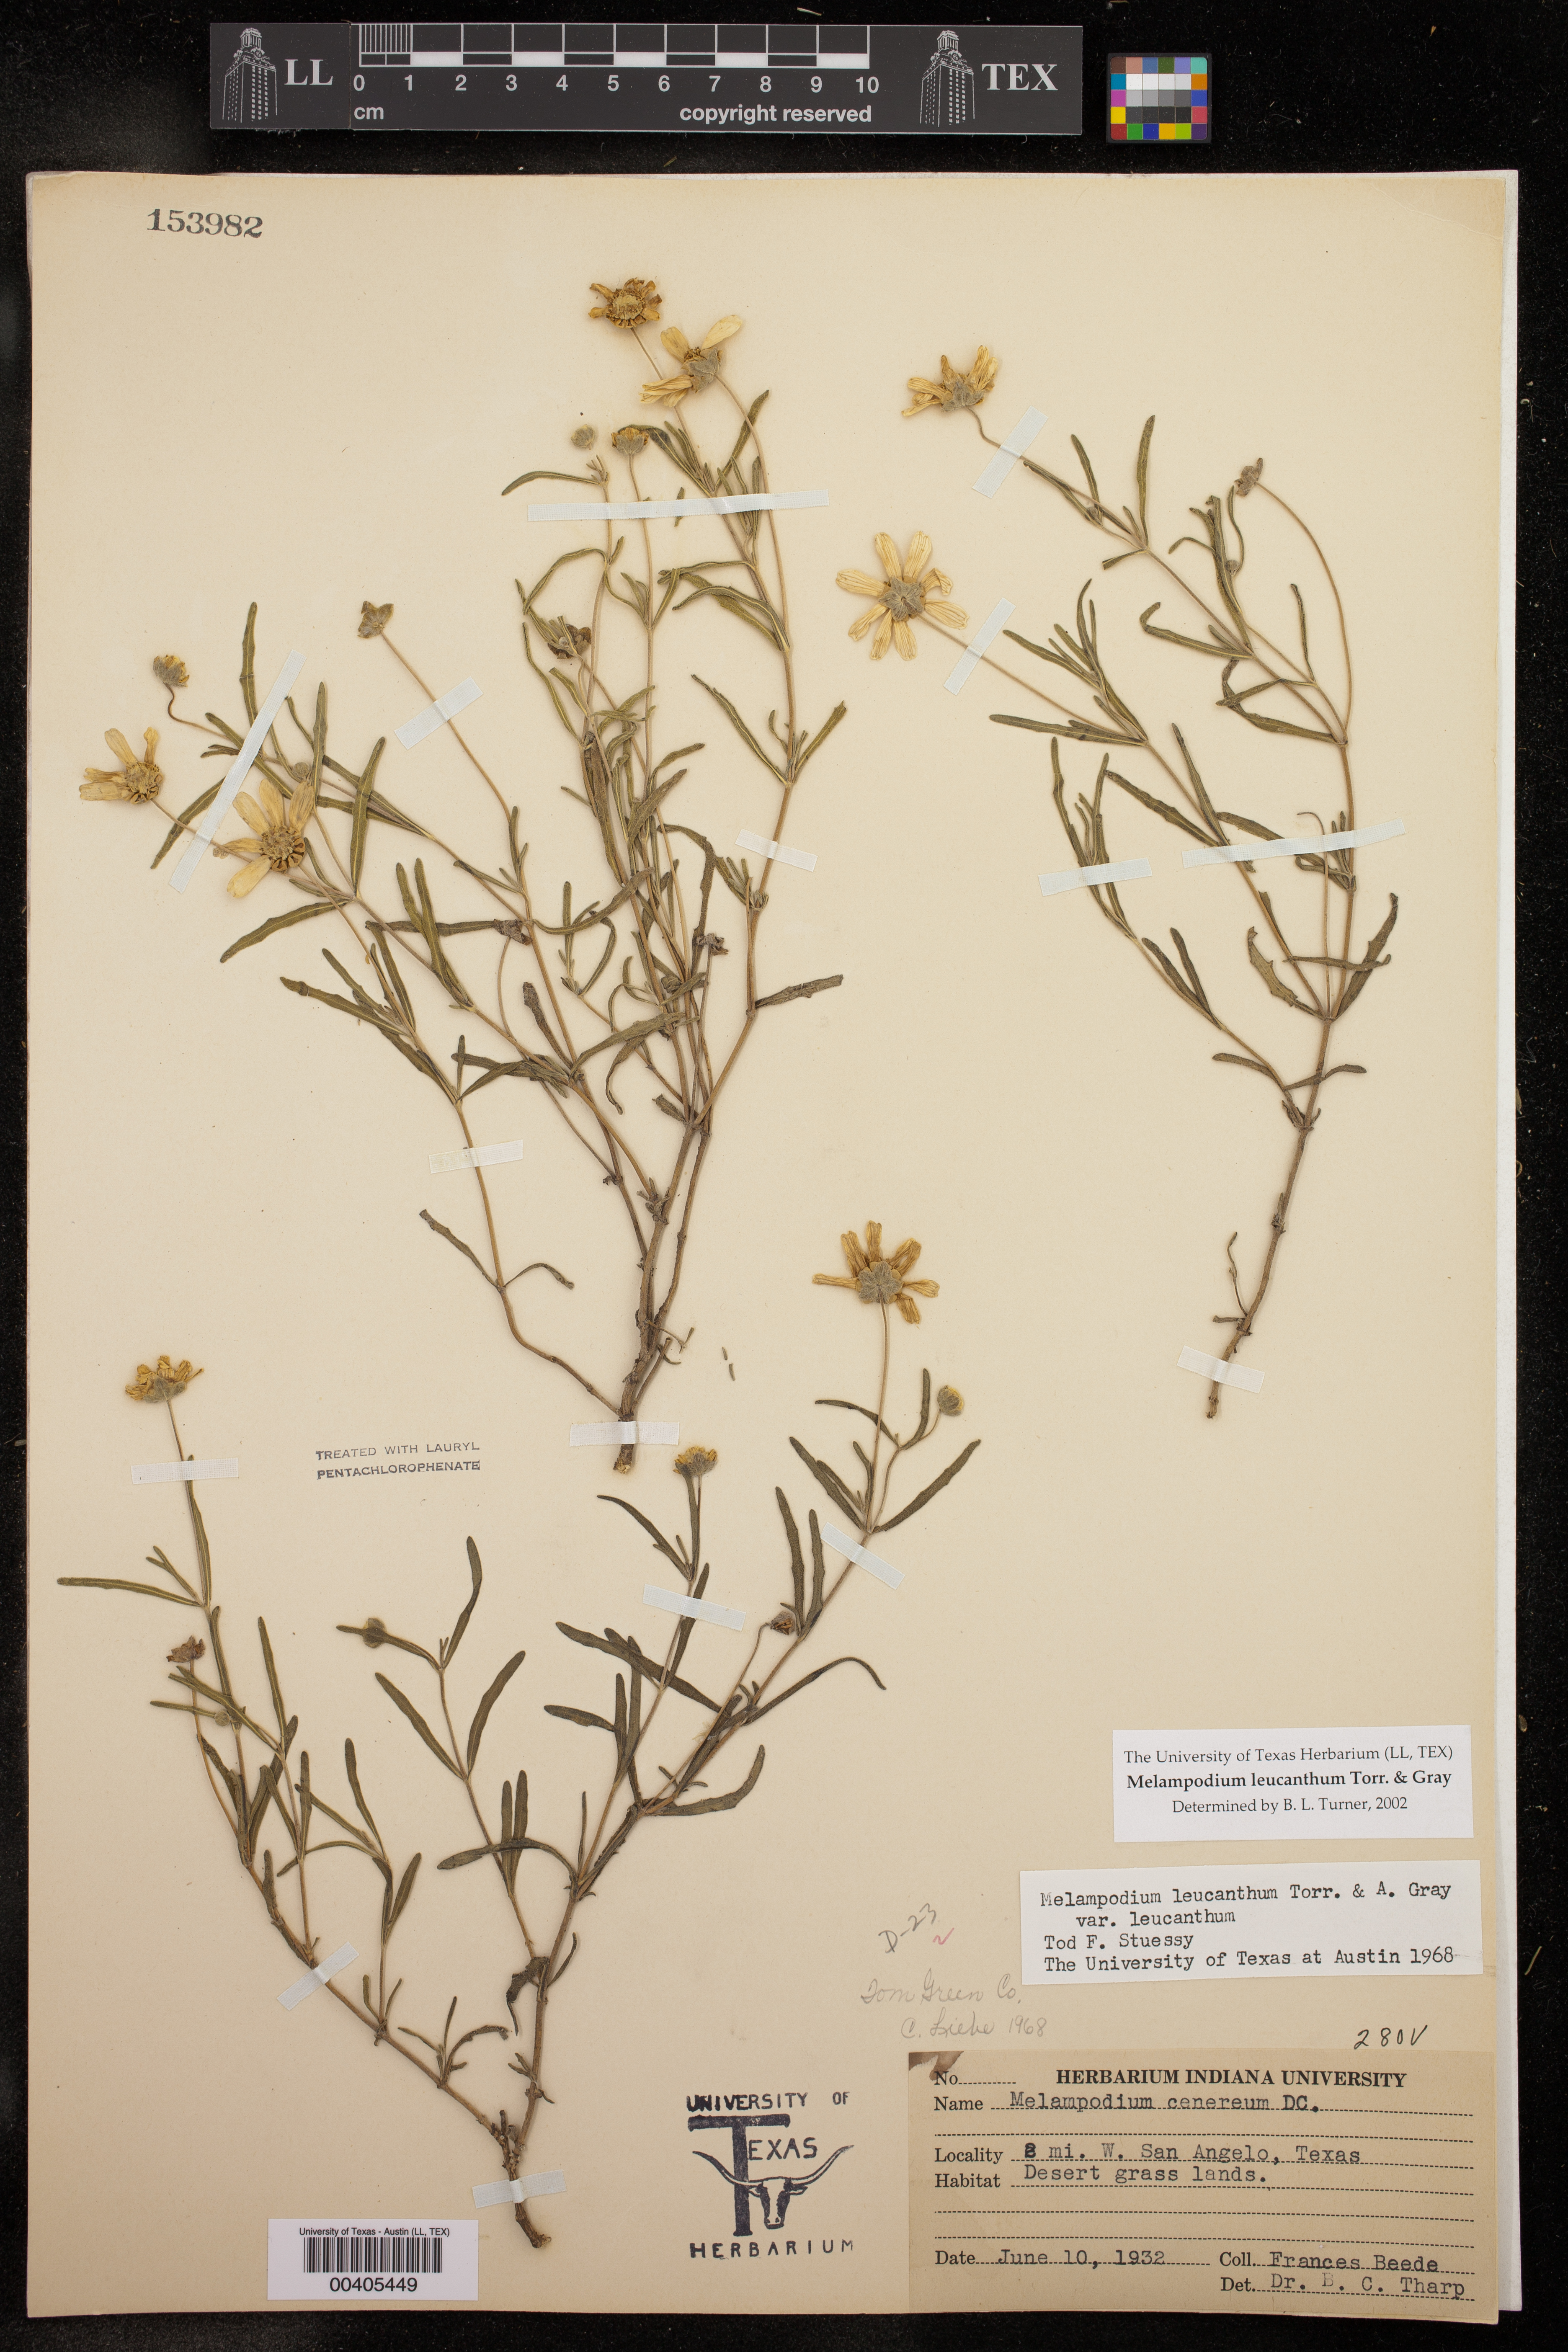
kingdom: Plantae
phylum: Tracheophyta
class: Magnoliopsida
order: Asterales
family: Asteraceae
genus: Melampodium
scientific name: Melampodium leucanthum
